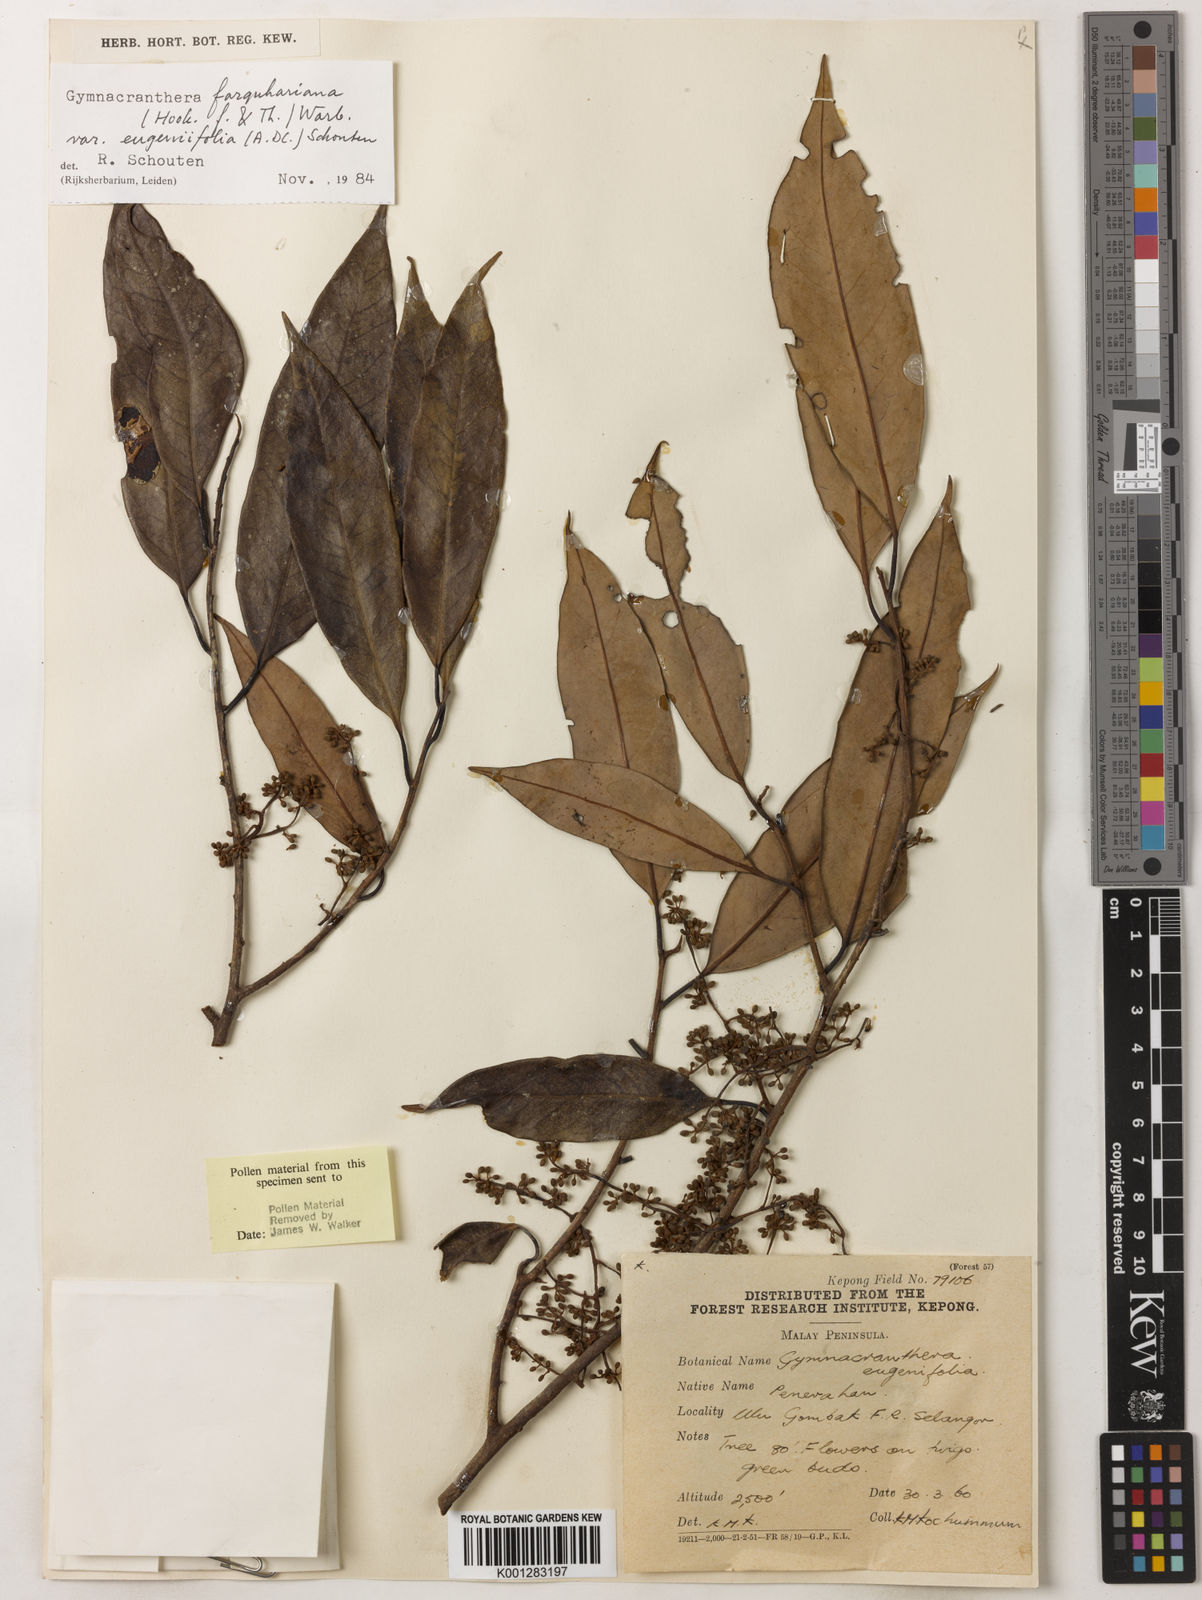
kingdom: Plantae
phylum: Tracheophyta
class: Magnoliopsida
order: Magnoliales
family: Myristicaceae
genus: Gymnacranthera
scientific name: Gymnacranthera farquhariana
